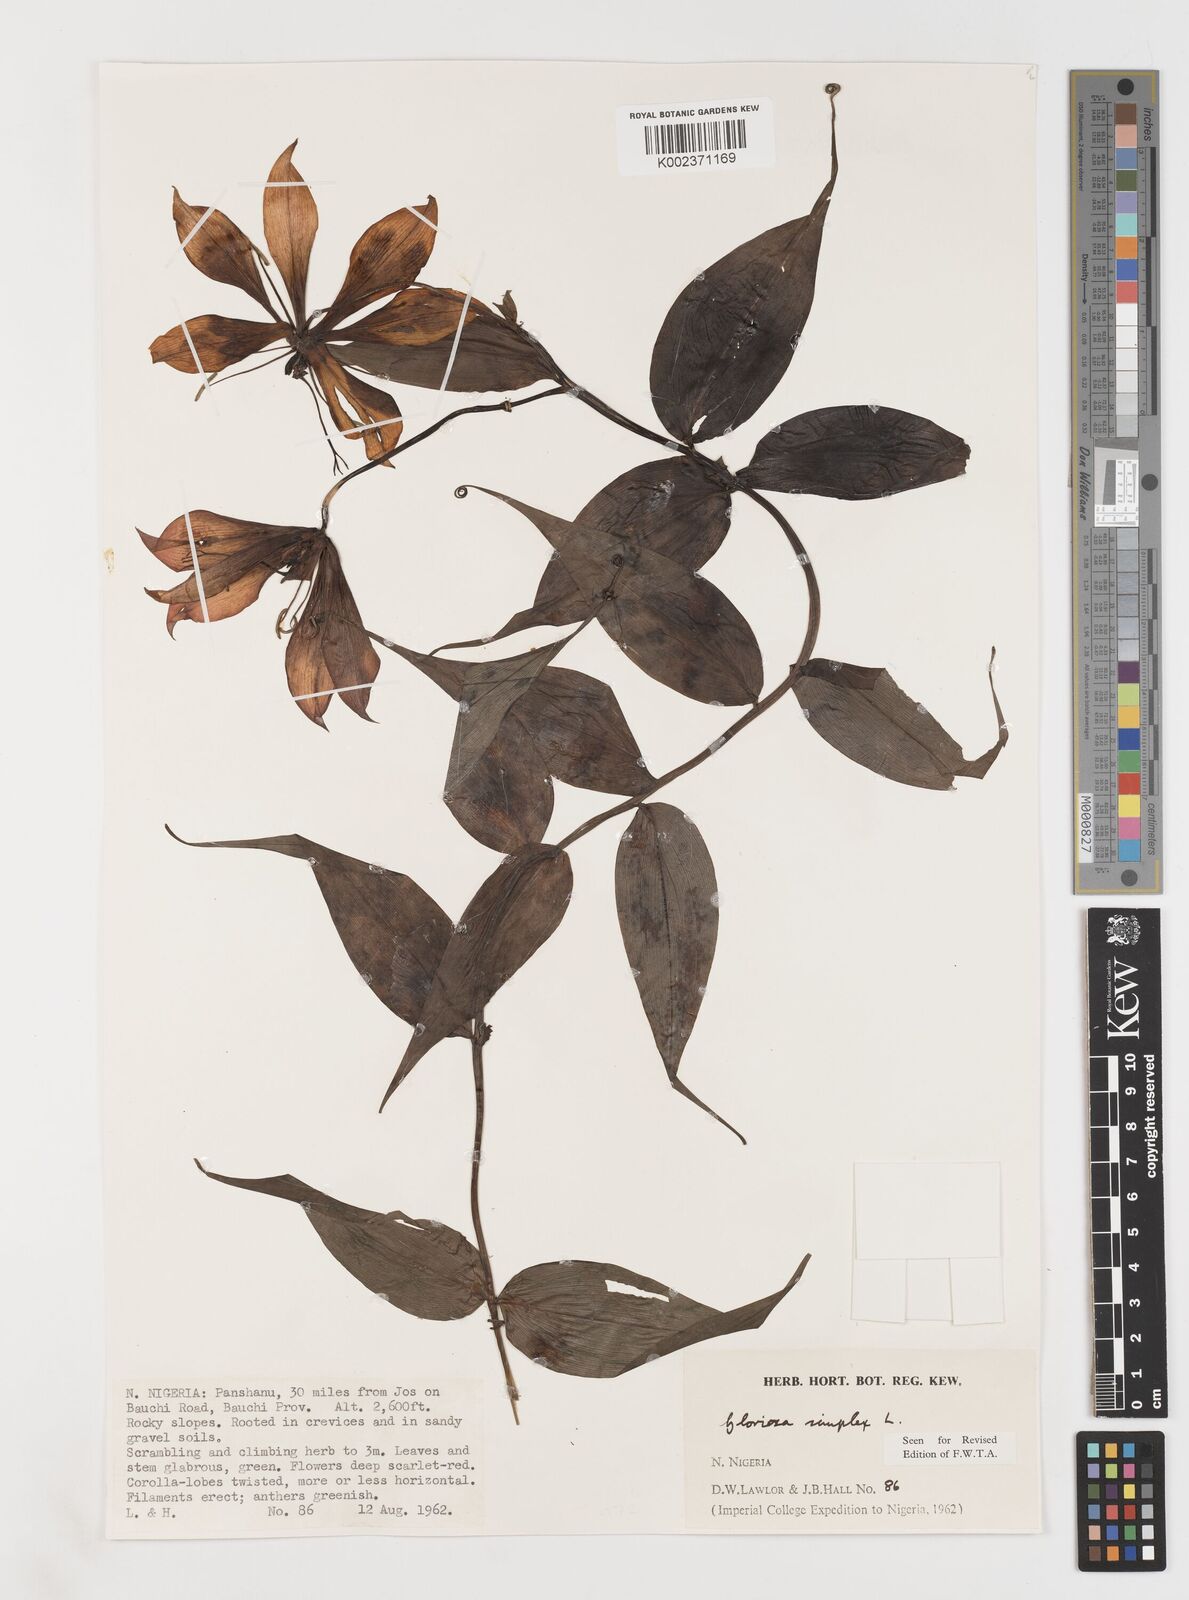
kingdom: Plantae
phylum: Tracheophyta
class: Liliopsida
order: Liliales
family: Colchicaceae
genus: Gloriosa
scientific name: Gloriosa simplex
